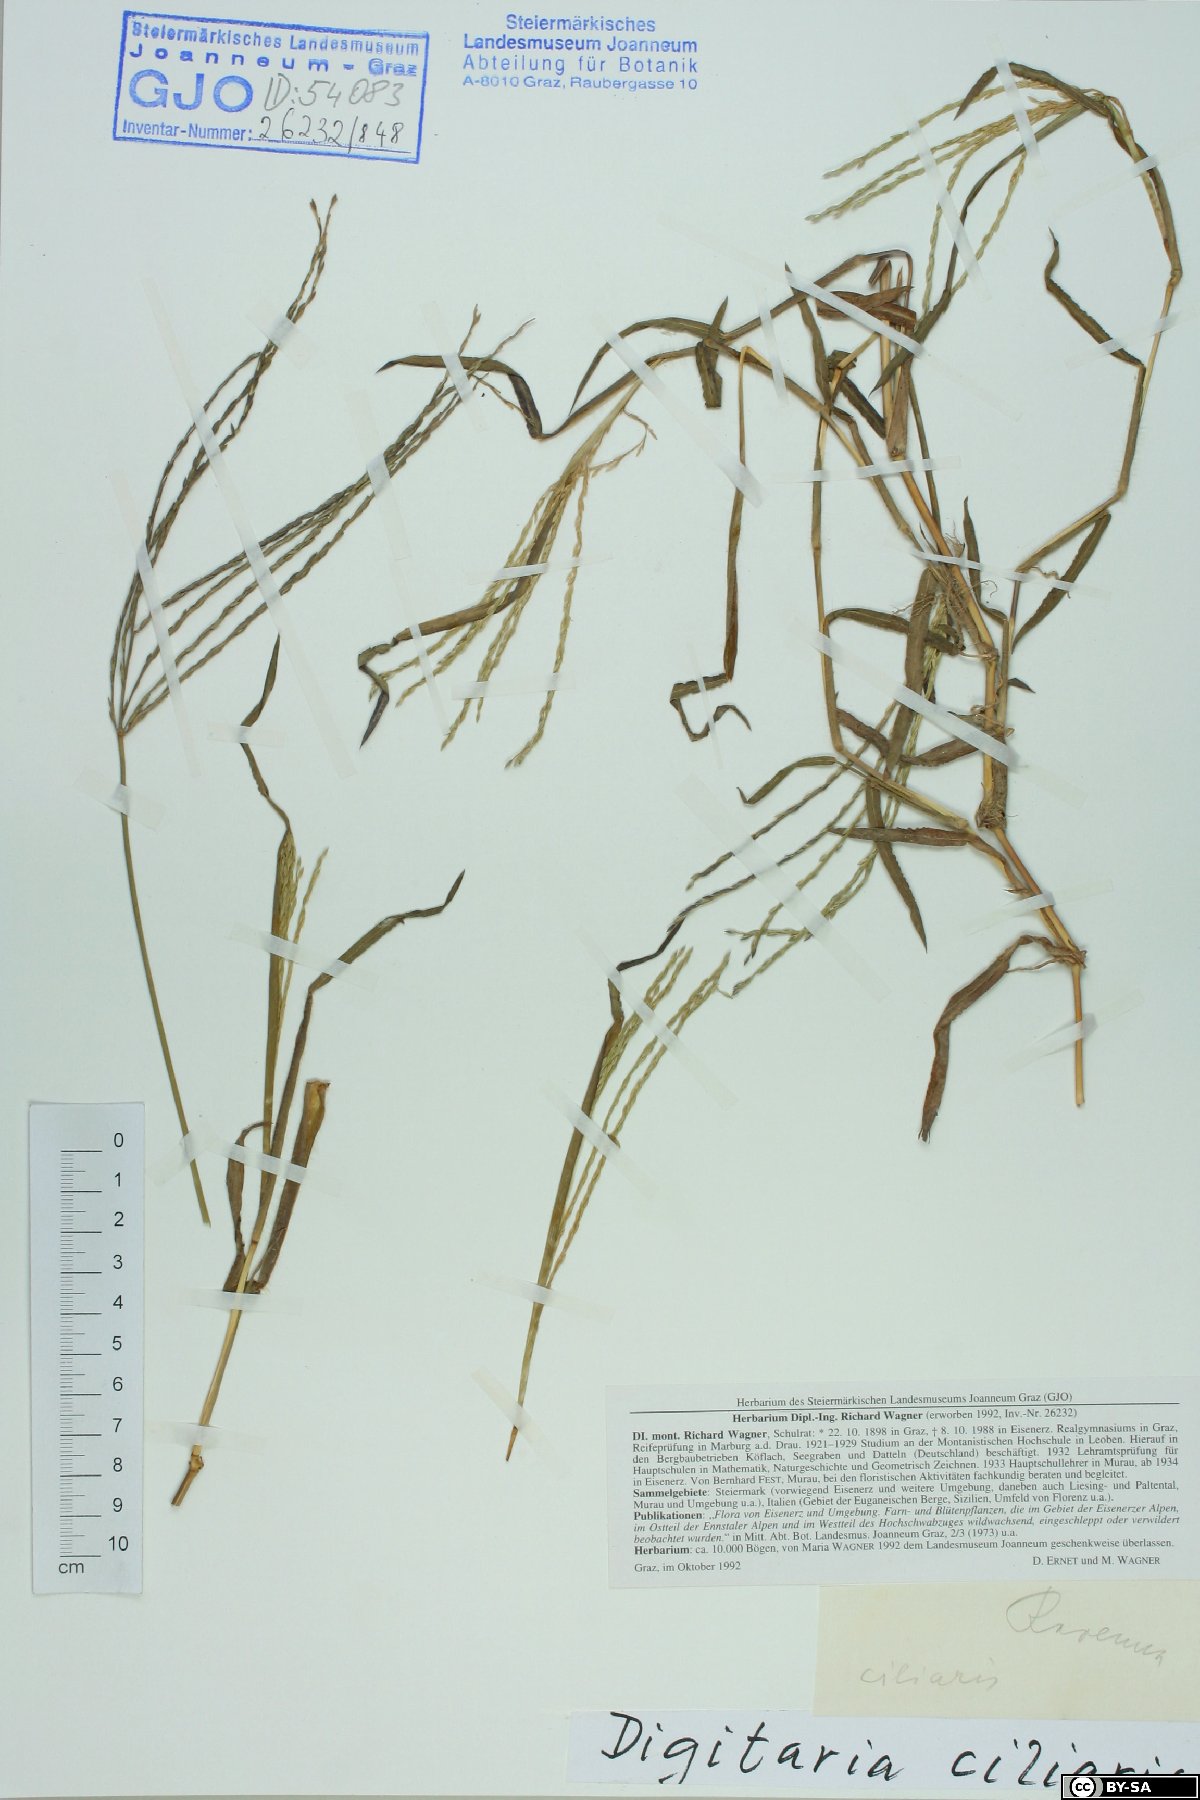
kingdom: Plantae
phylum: Tracheophyta
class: Liliopsida
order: Poales
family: Poaceae
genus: Digitaria
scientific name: Digitaria ciliaris
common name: Tropical finger-grass
